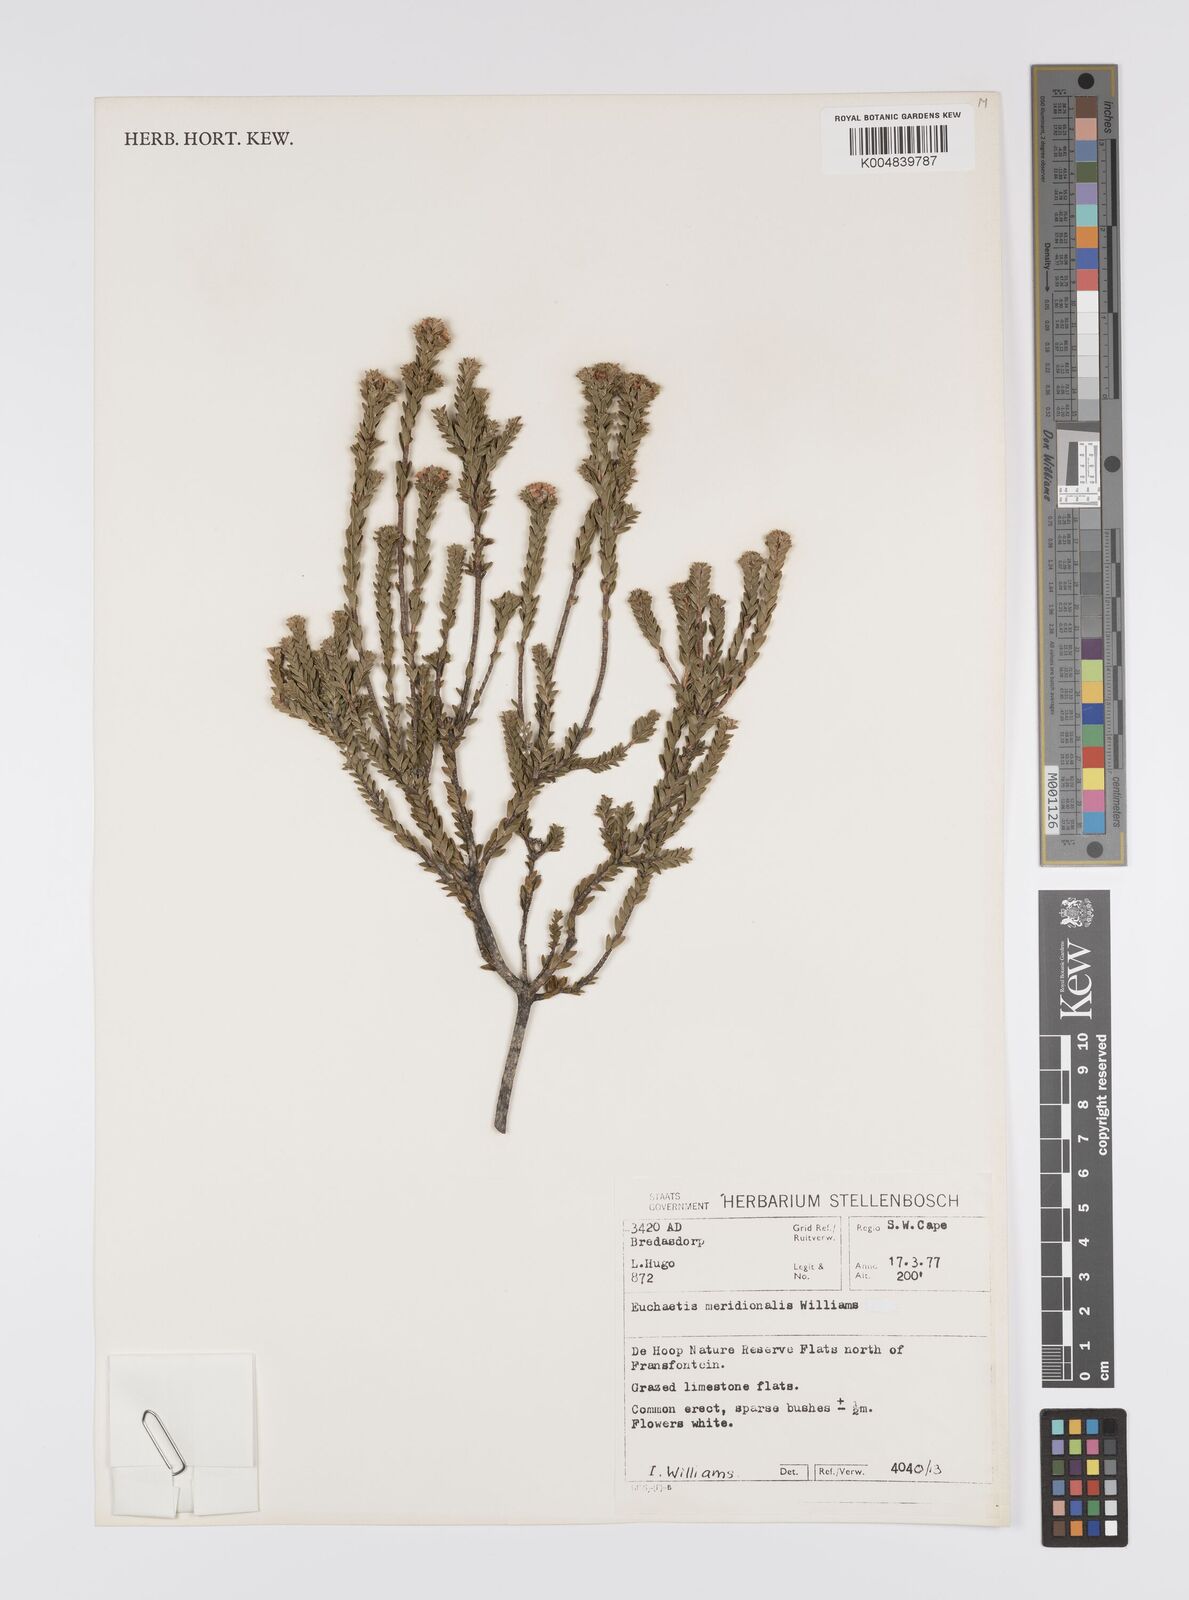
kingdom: Plantae
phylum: Tracheophyta
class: Magnoliopsida
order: Sapindales
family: Rutaceae
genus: Euchaetis
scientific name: Euchaetis meridionalis
